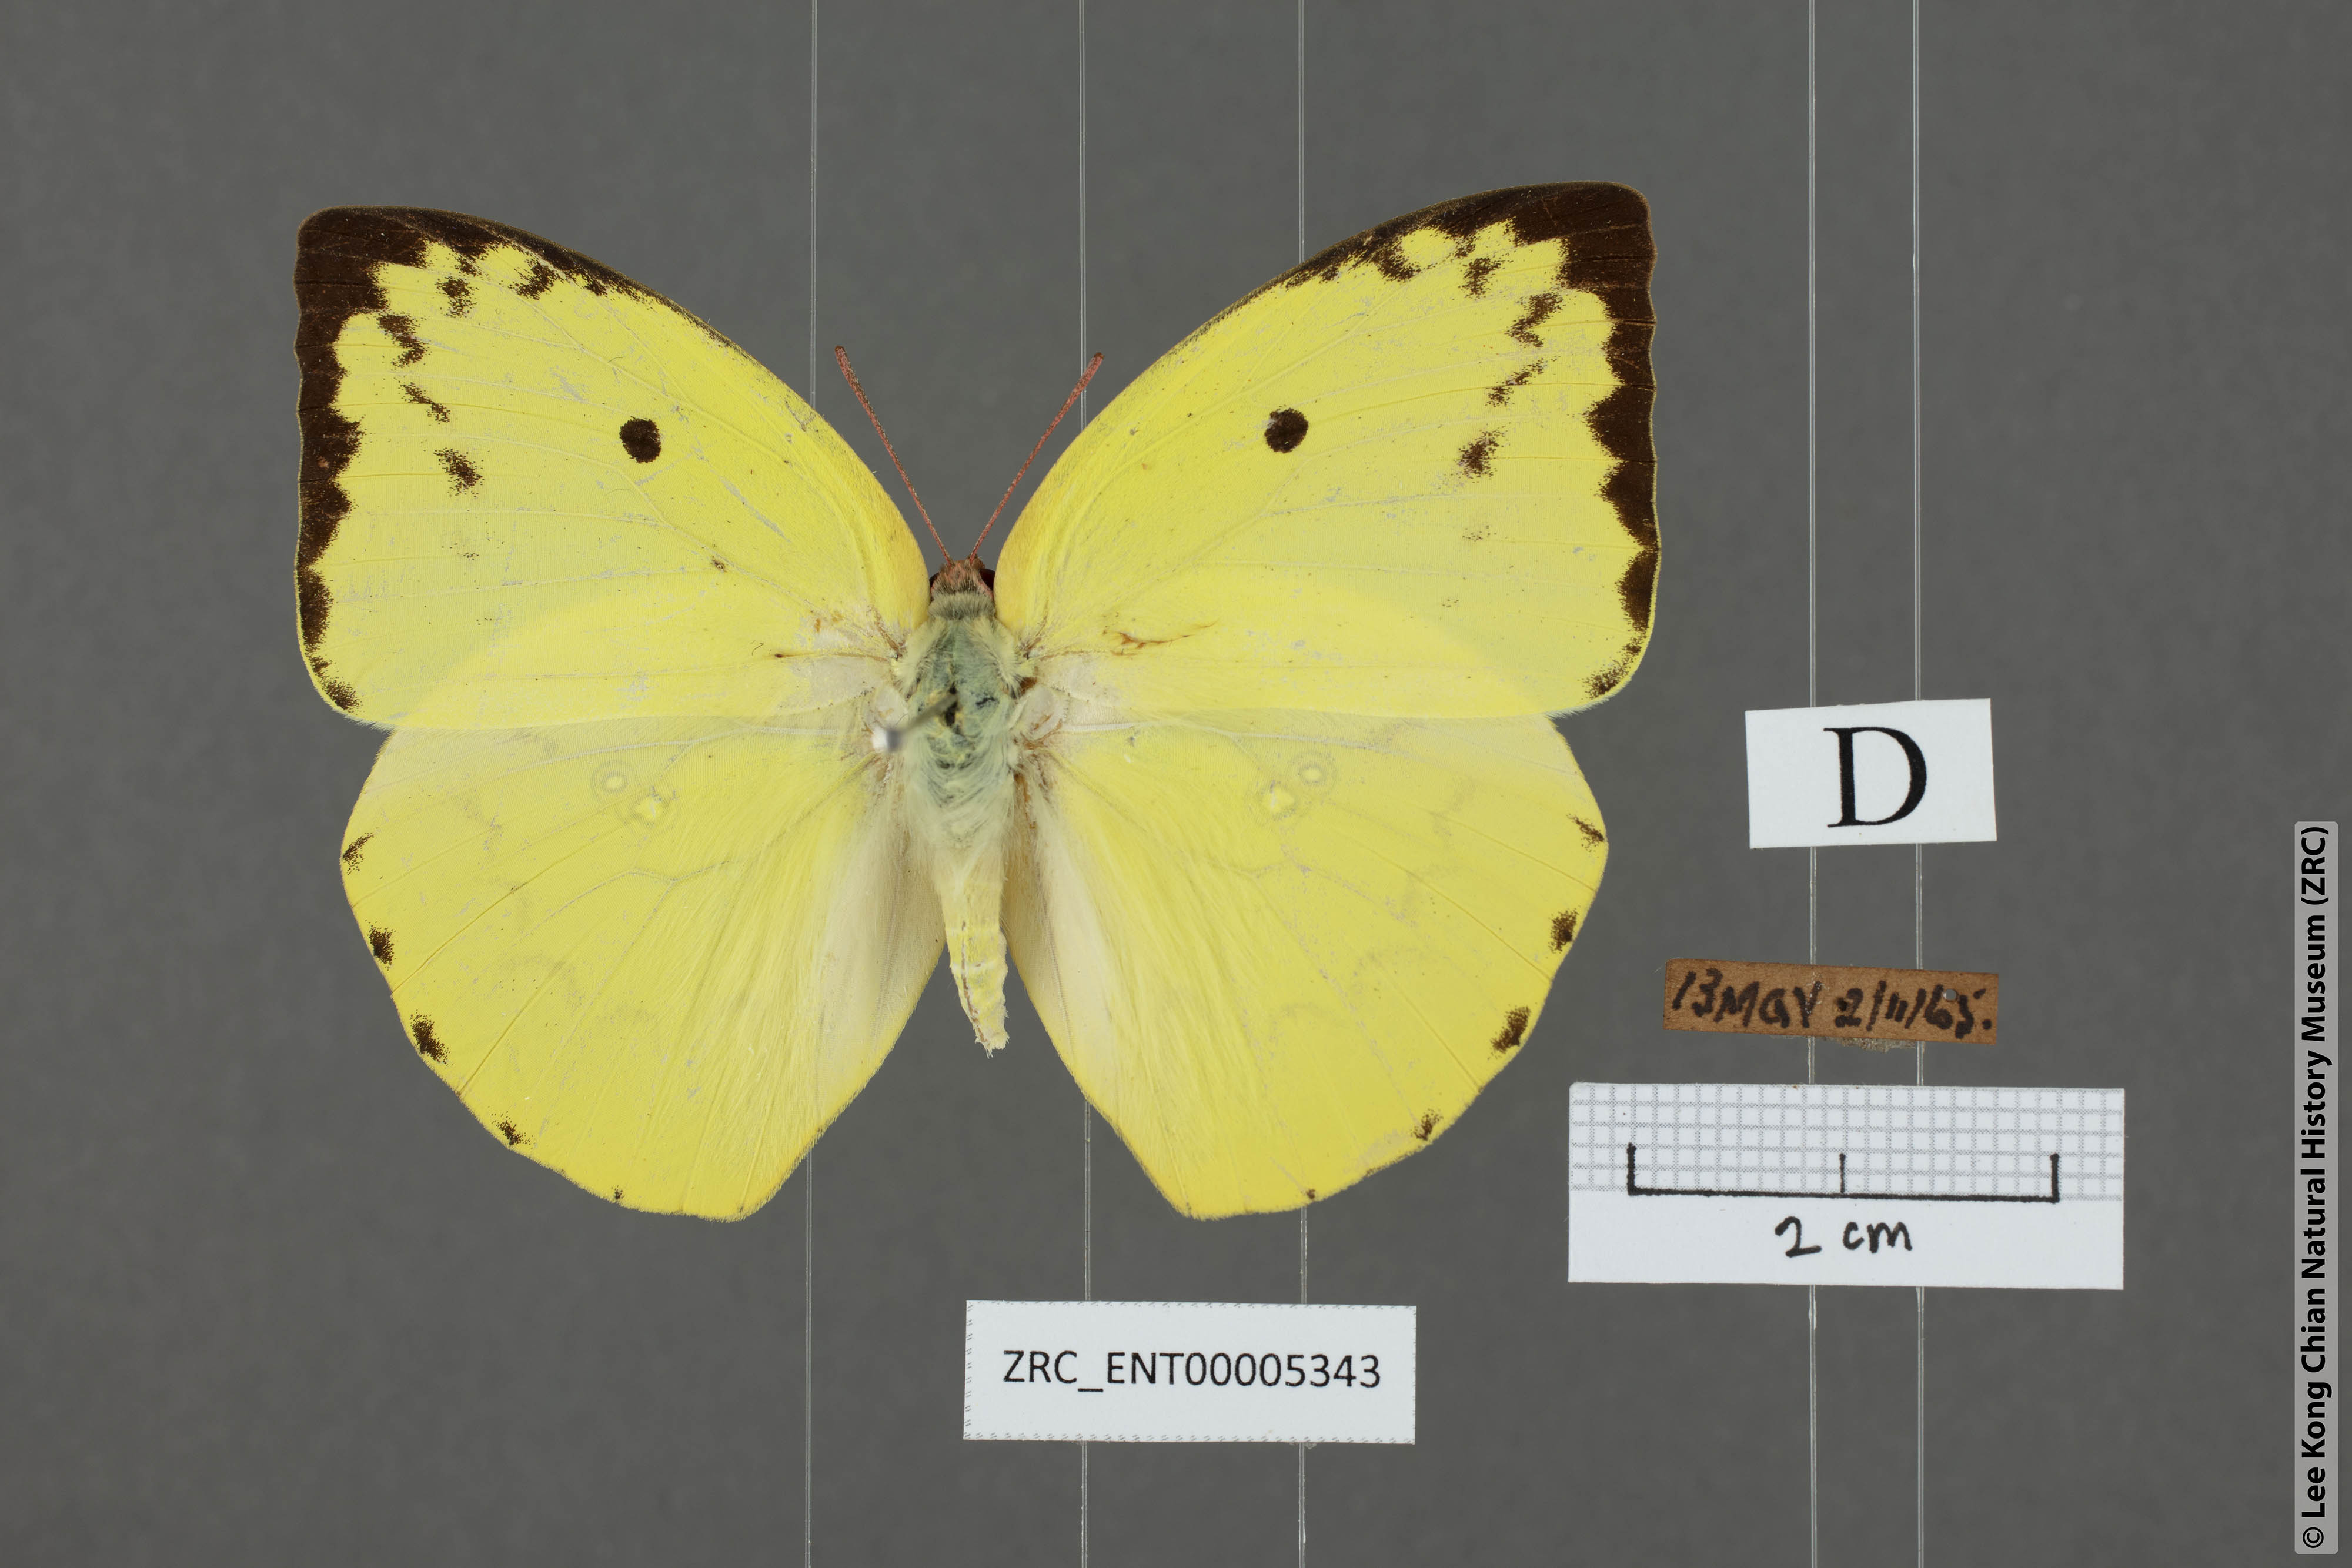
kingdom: Animalia
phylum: Arthropoda
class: Insecta
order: Lepidoptera
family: Pieridae
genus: Catopsilia
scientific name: Catopsilia pomona
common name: Common emigrant
